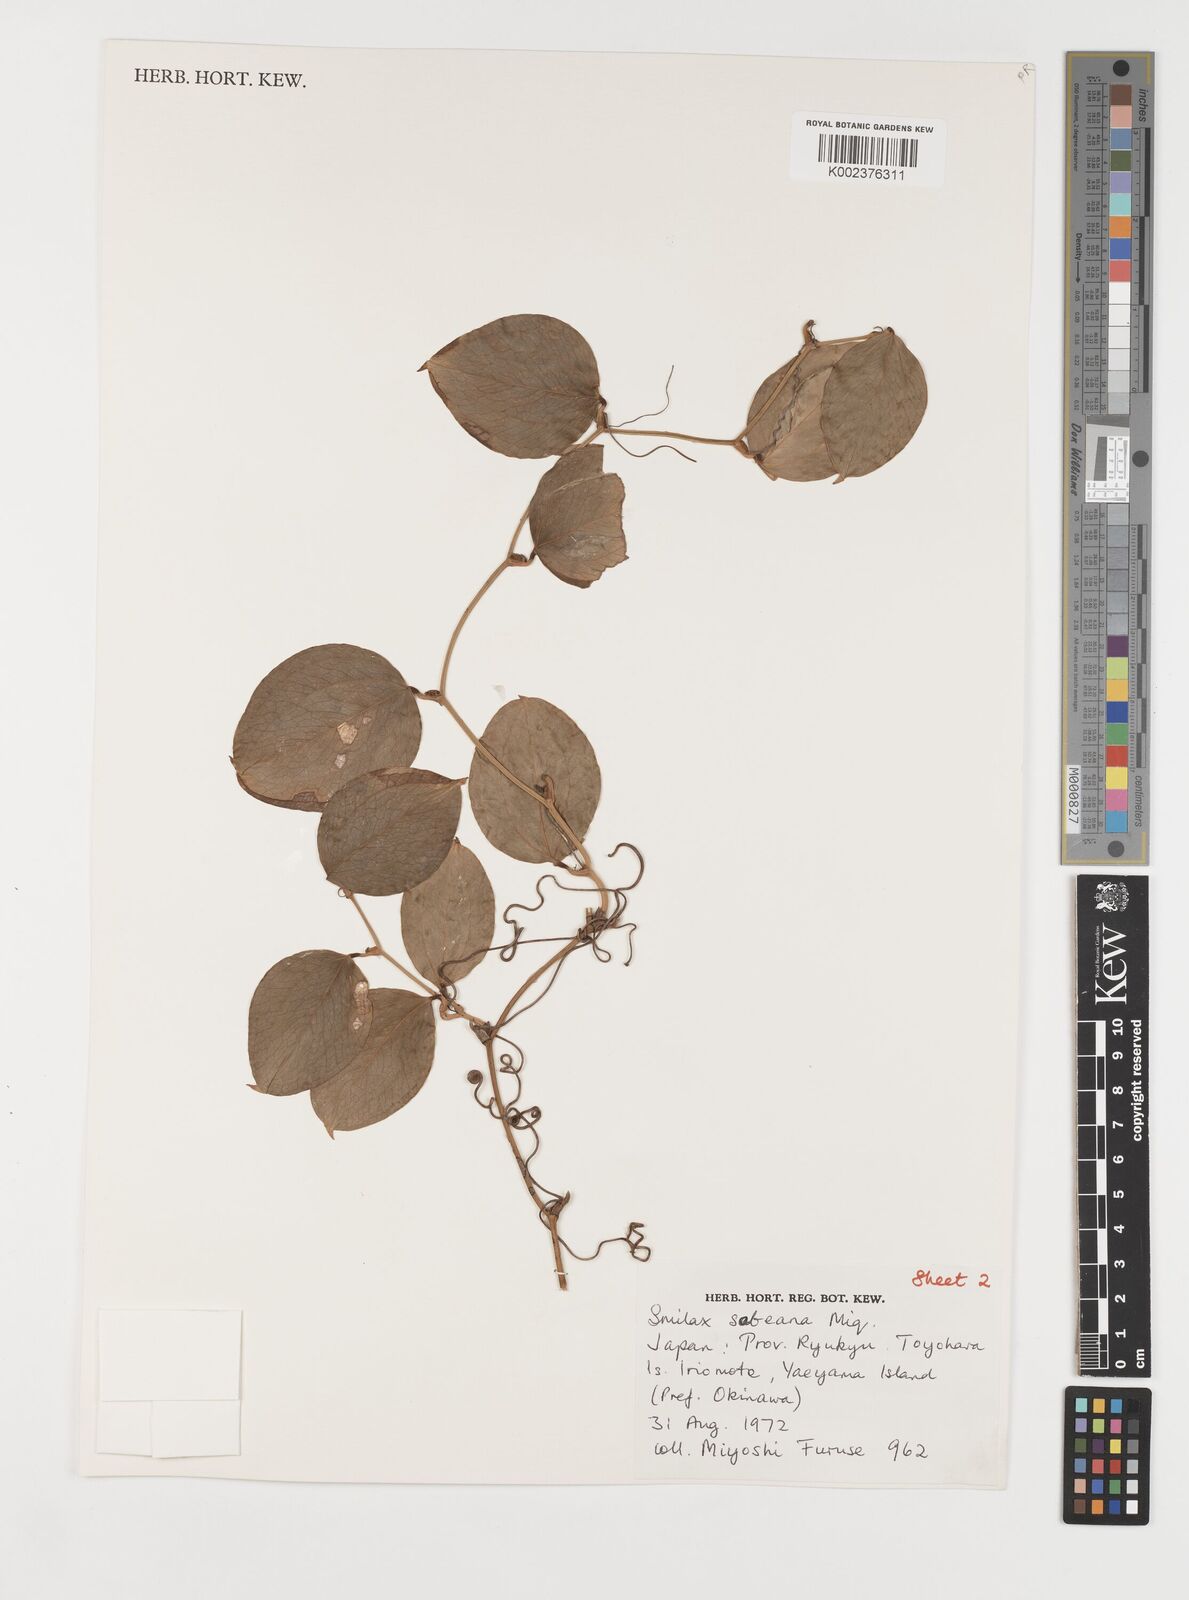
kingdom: Plantae
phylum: Tracheophyta
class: Liliopsida
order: Liliales
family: Smilacaceae
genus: Smilax
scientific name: Smilax sebeana
